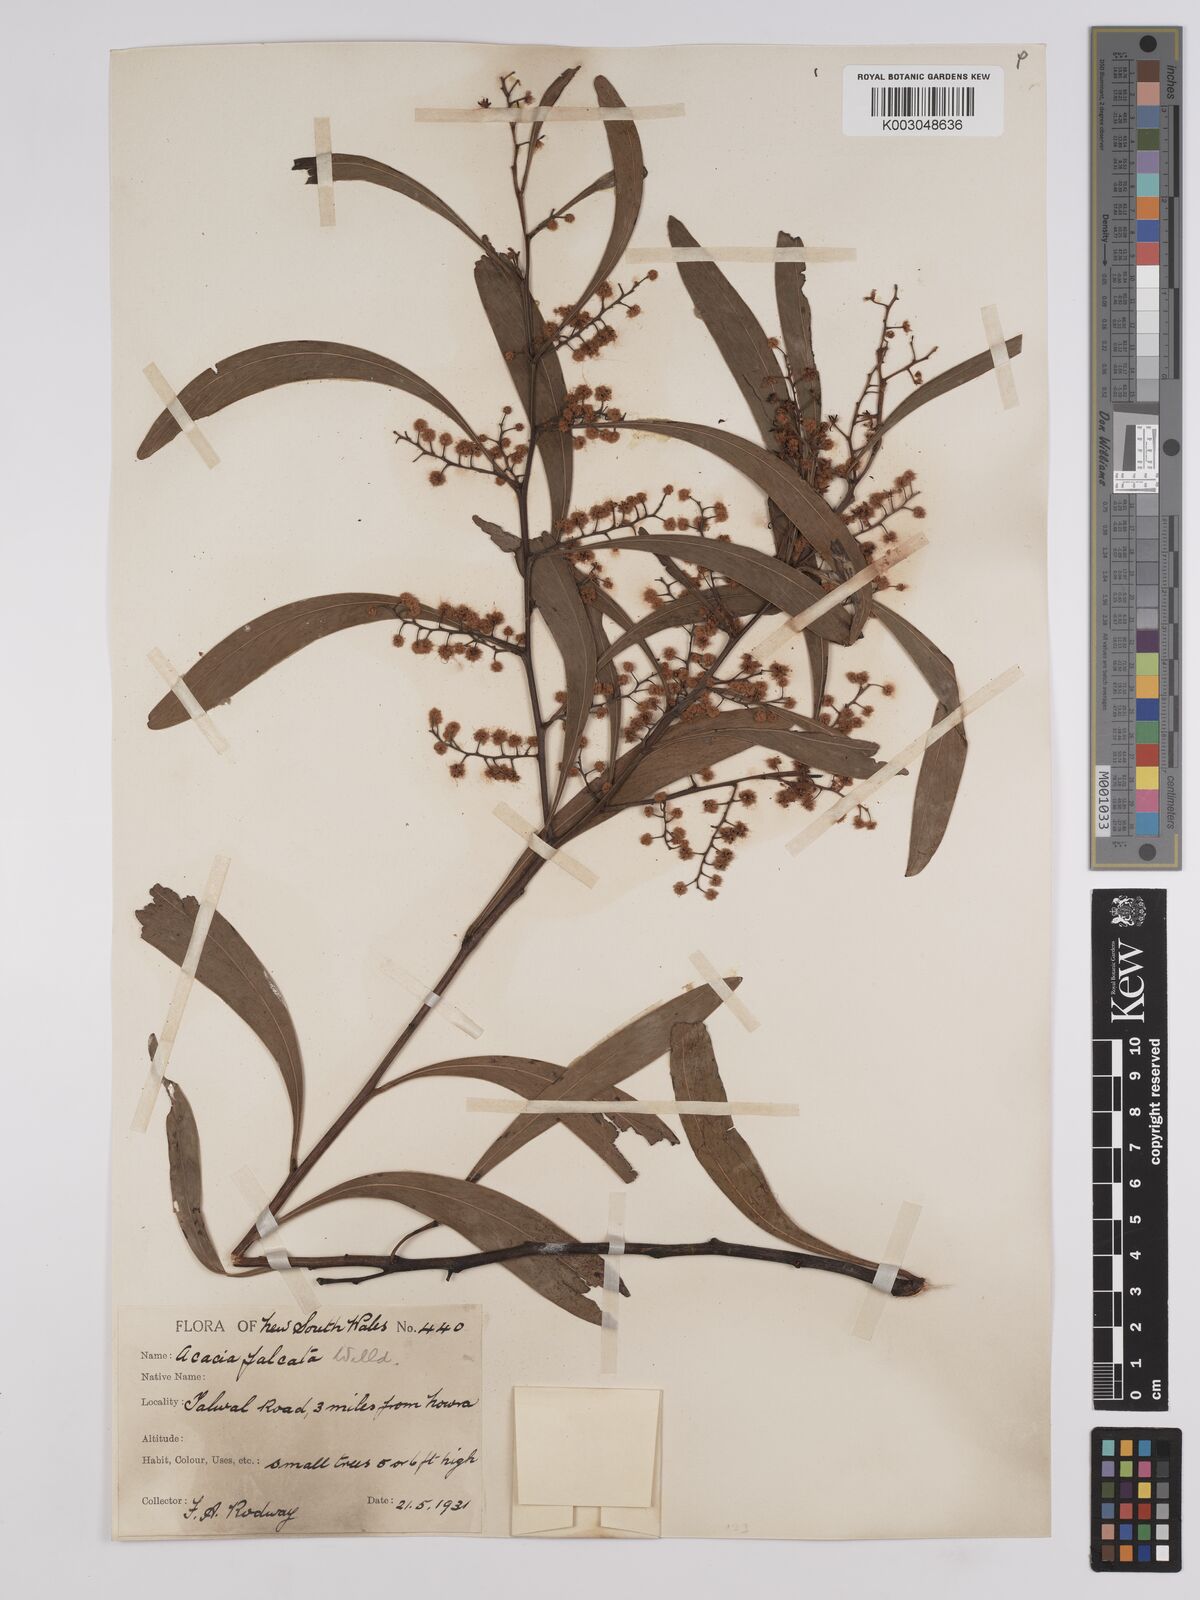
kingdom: Plantae
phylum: Tracheophyta
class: Magnoliopsida
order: Fabales
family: Fabaceae
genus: Acacia
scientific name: Acacia falcata
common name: Burra acacia
